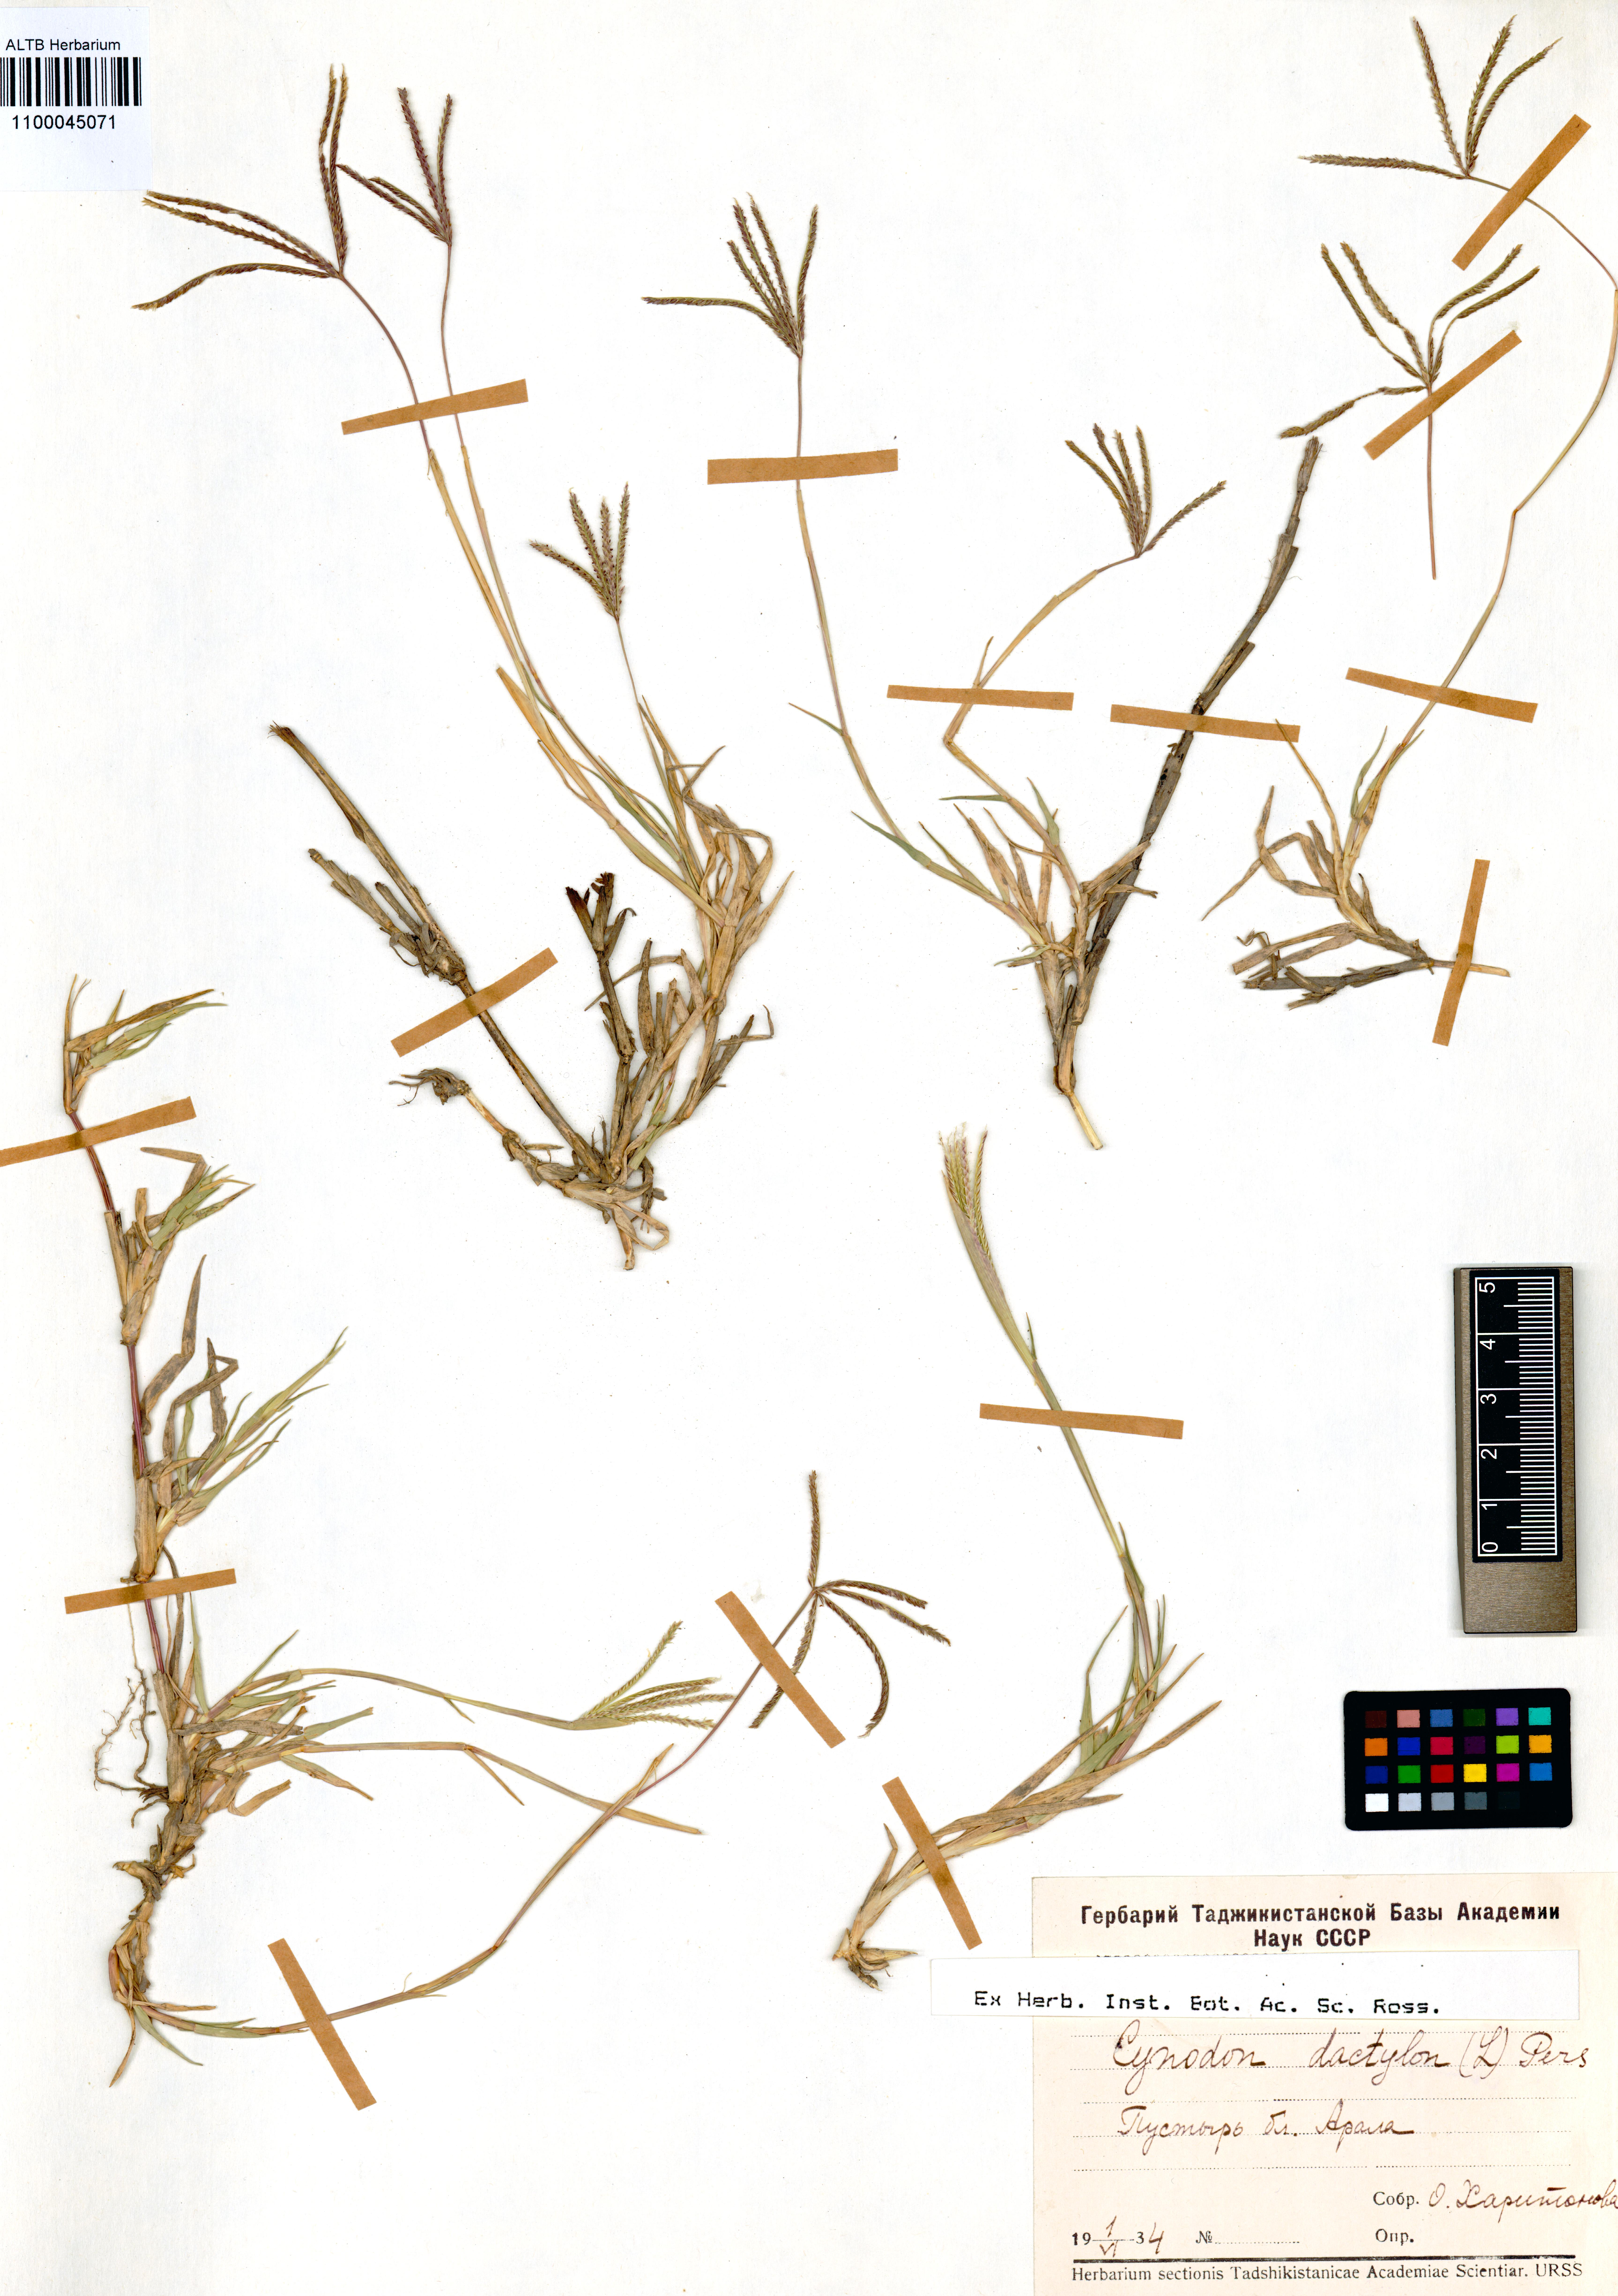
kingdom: Plantae
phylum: Tracheophyta
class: Liliopsida
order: Poales
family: Poaceae
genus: Cynodon
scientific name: Cynodon dactylon
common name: Bermuda grass
